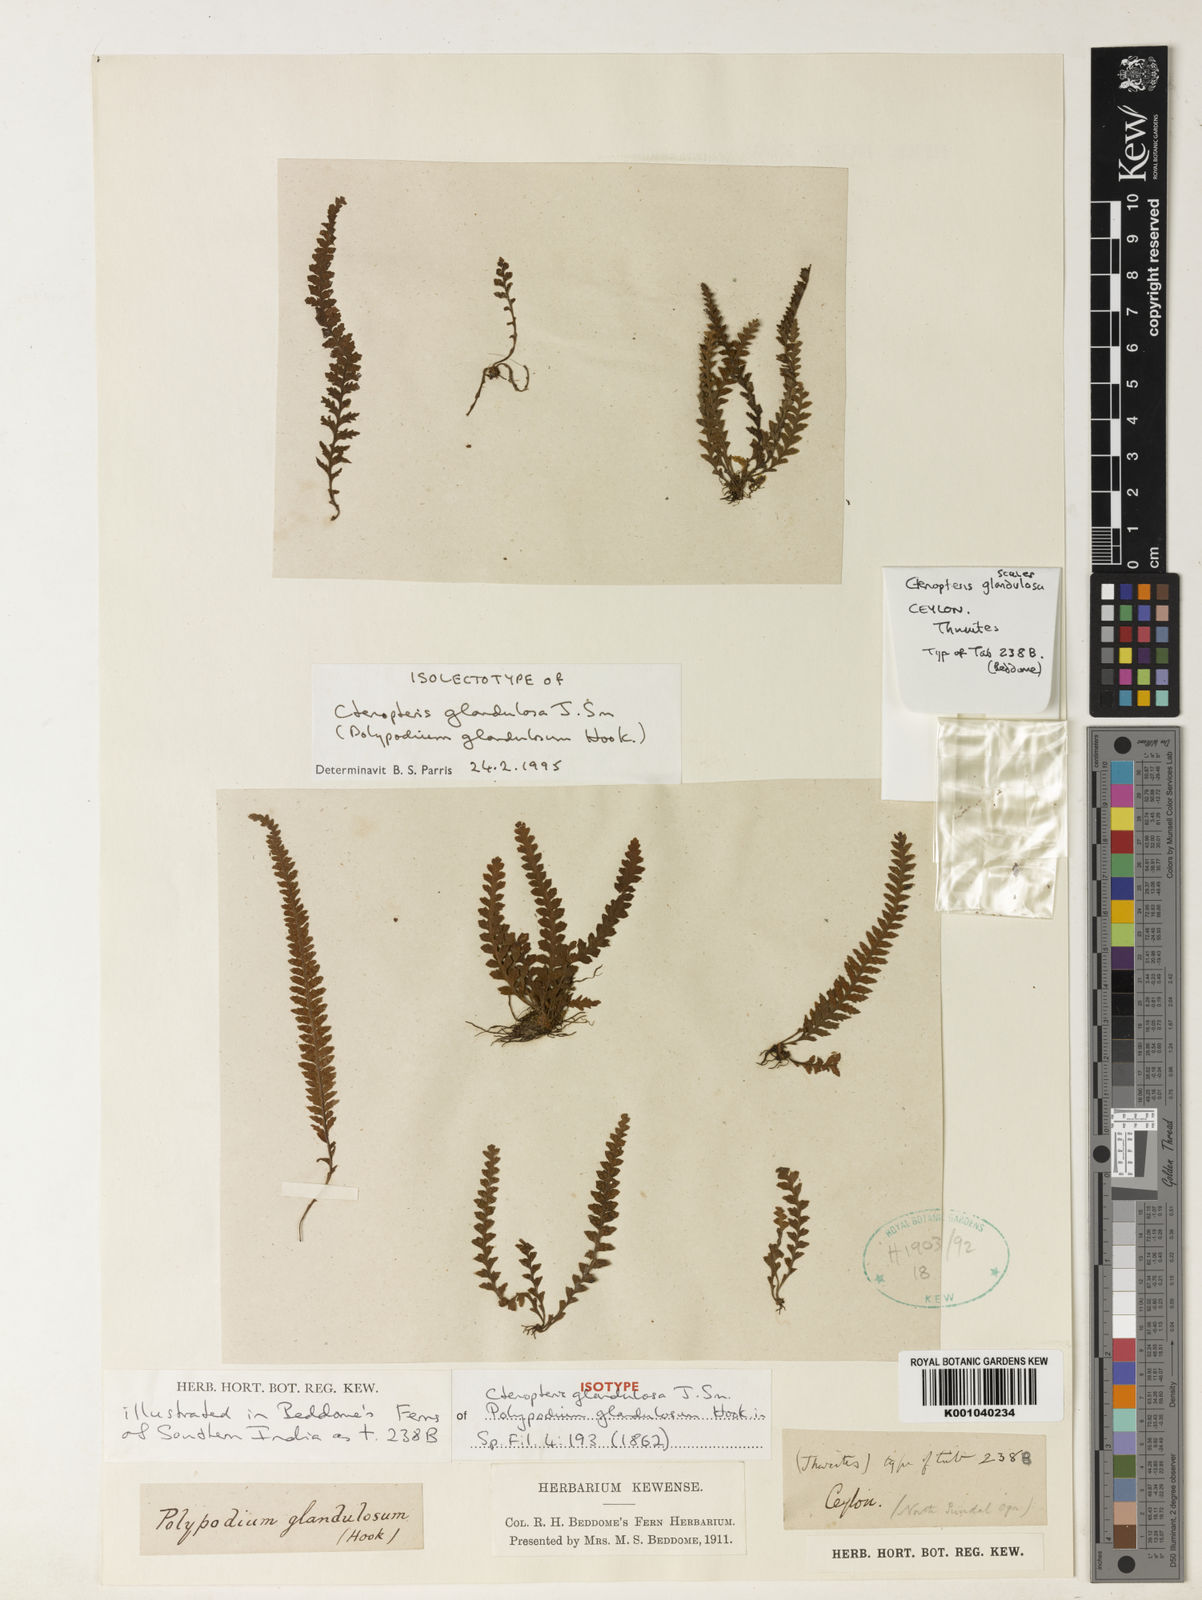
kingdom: Plantae
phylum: Tracheophyta
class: Polypodiopsida
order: Polypodiales
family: Polypodiaceae
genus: Chrysogrammitis
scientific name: Chrysogrammitis glandulosa
